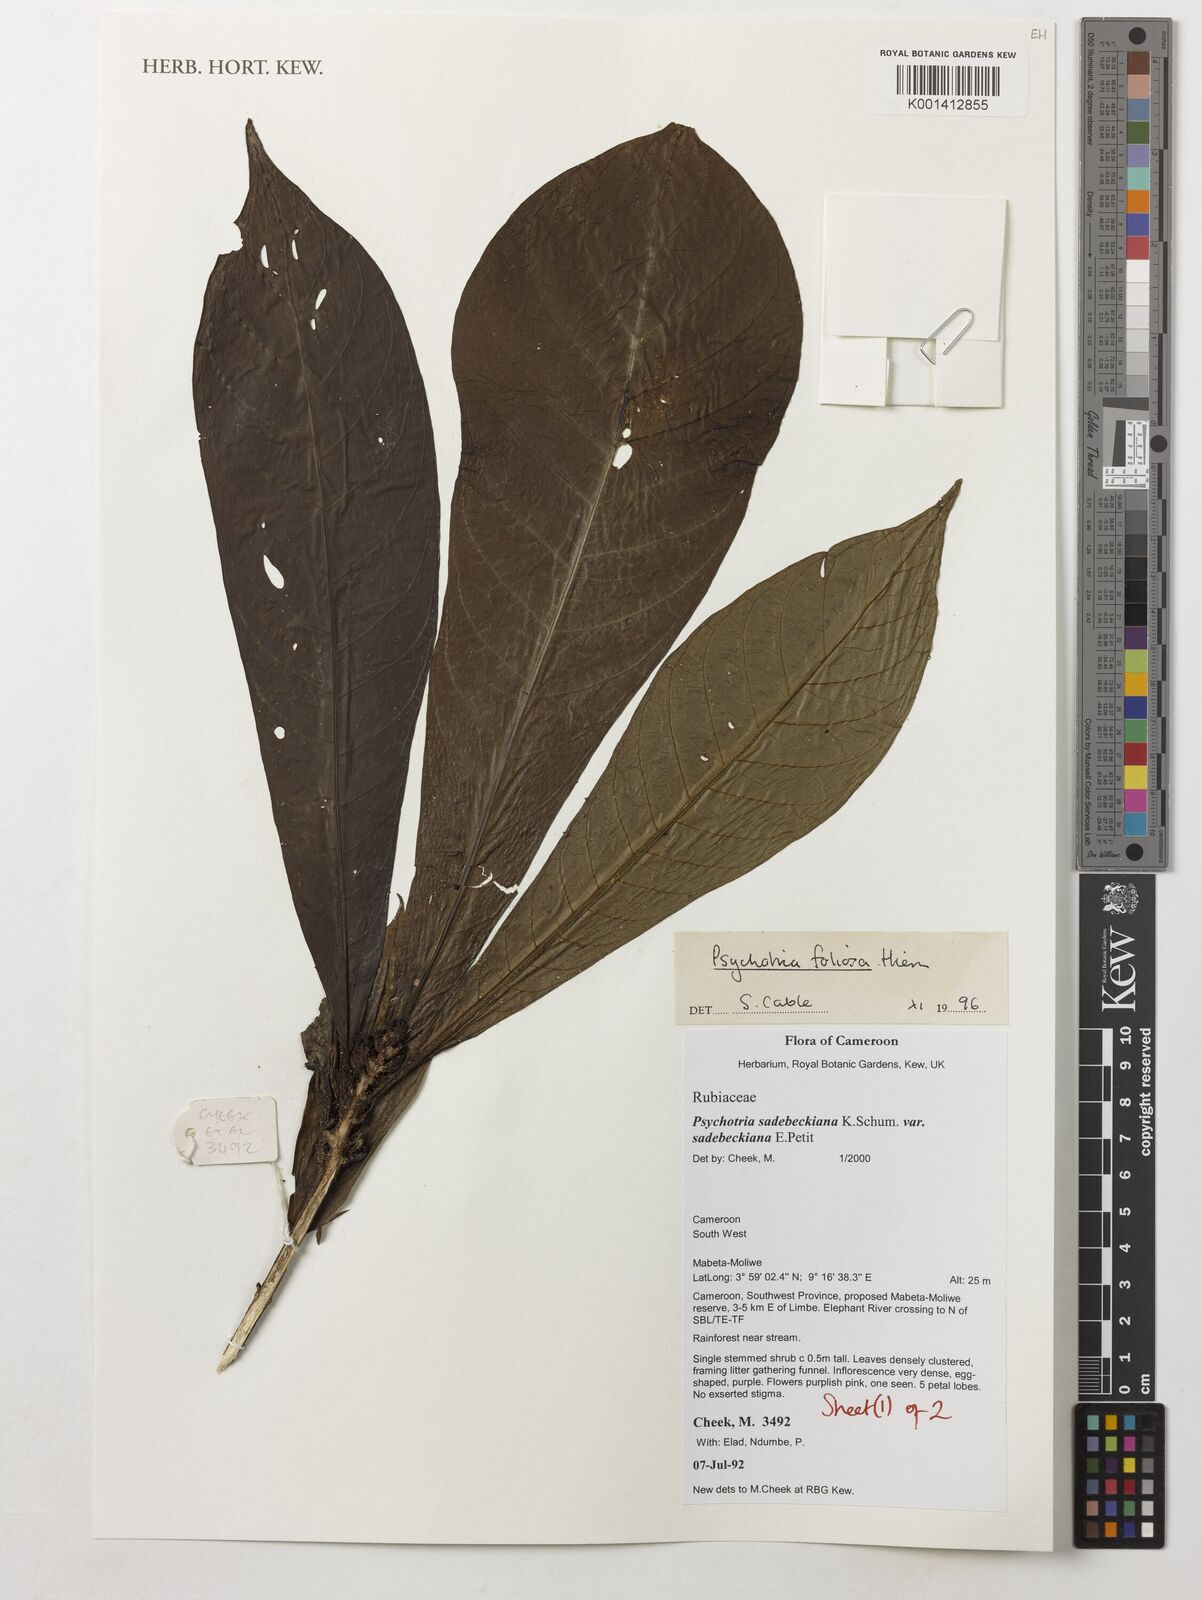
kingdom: Plantae
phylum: Tracheophyta
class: Magnoliopsida
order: Gentianales
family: Rubiaceae
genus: Psychotria
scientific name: Psychotria sadebeckiana
